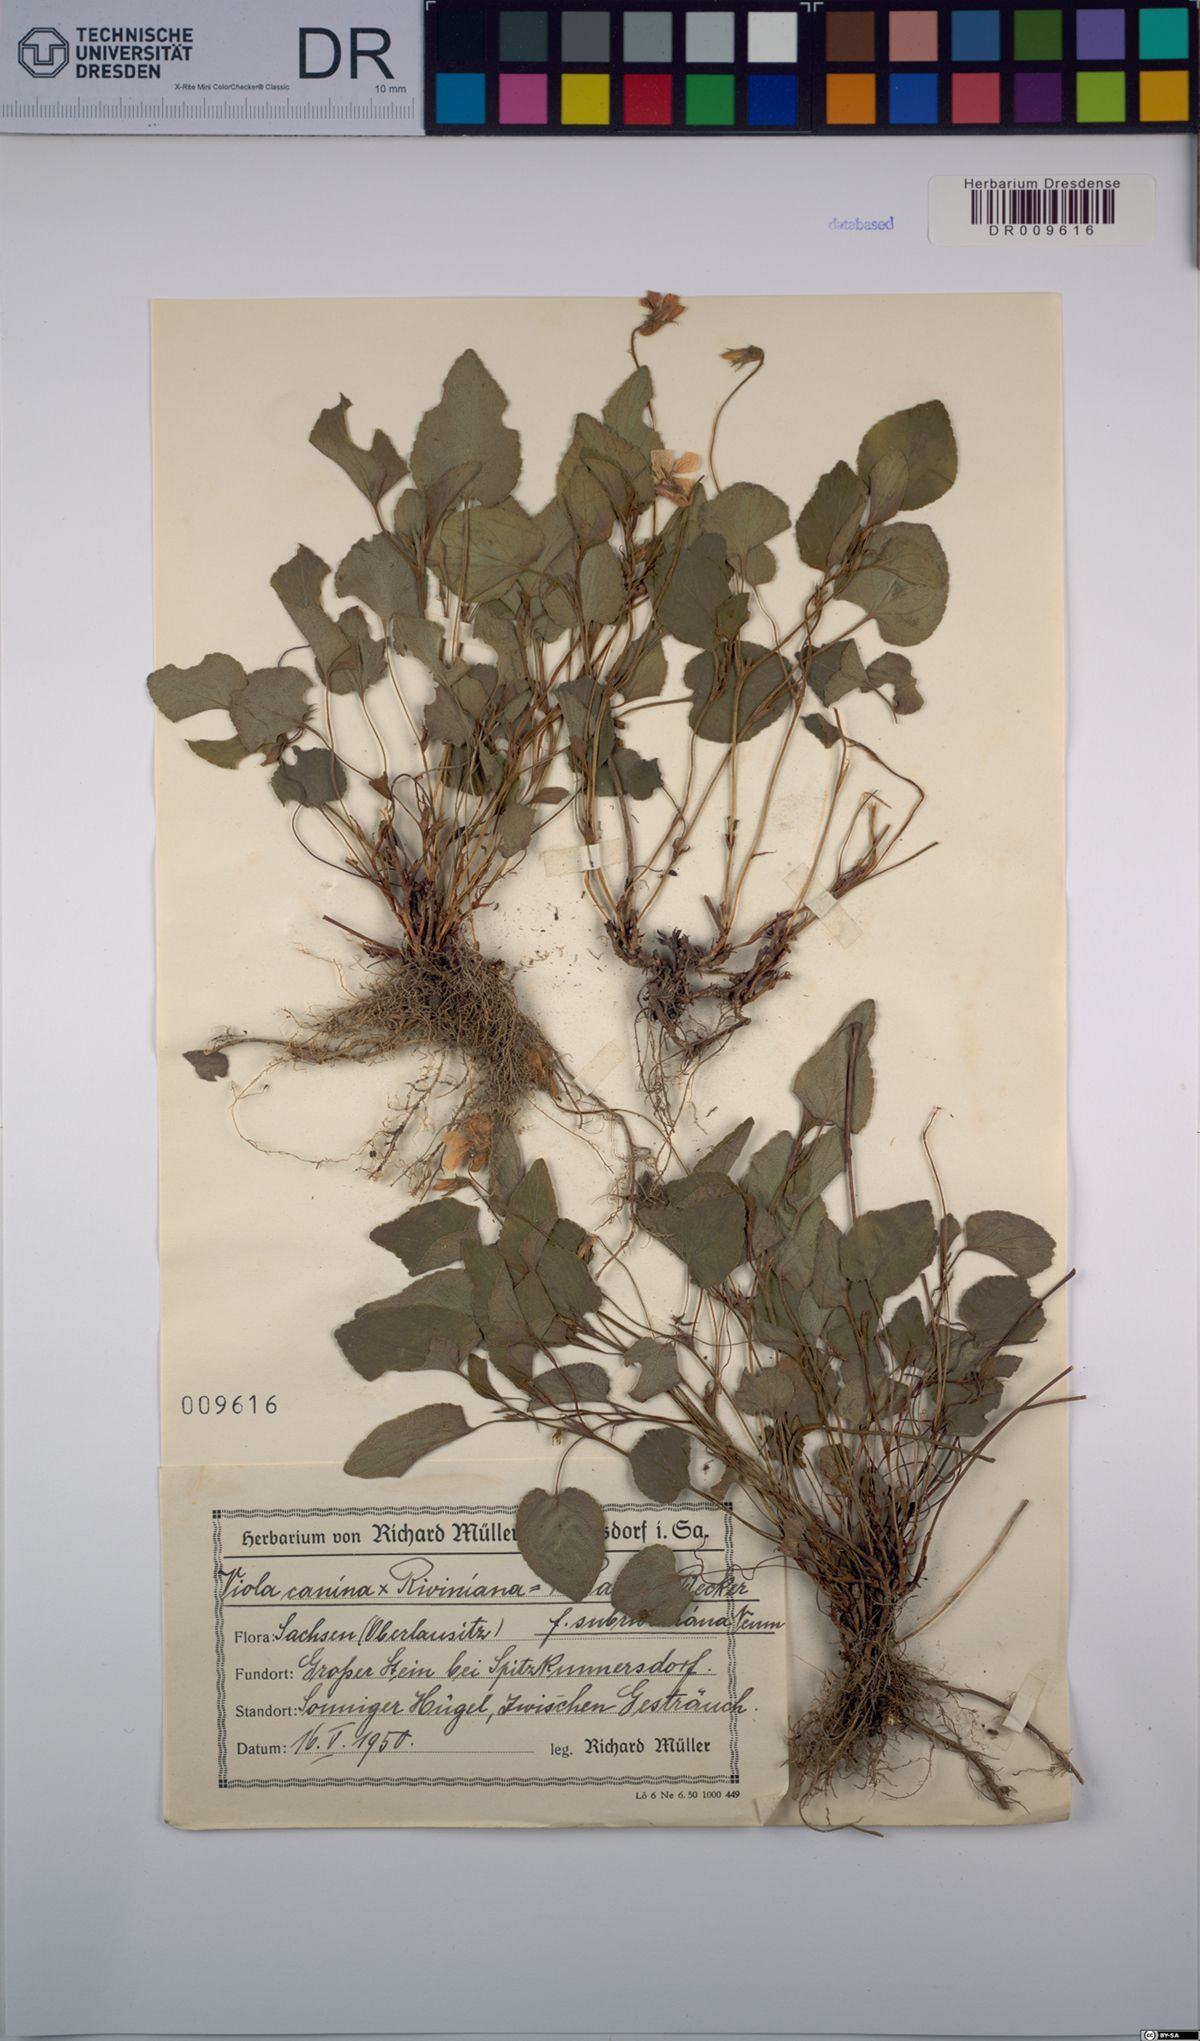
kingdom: Plantae
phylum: Tracheophyta
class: Magnoliopsida
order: Malpighiales
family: Violaceae
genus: Viola
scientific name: Viola riviniana
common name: Common dog-violet
